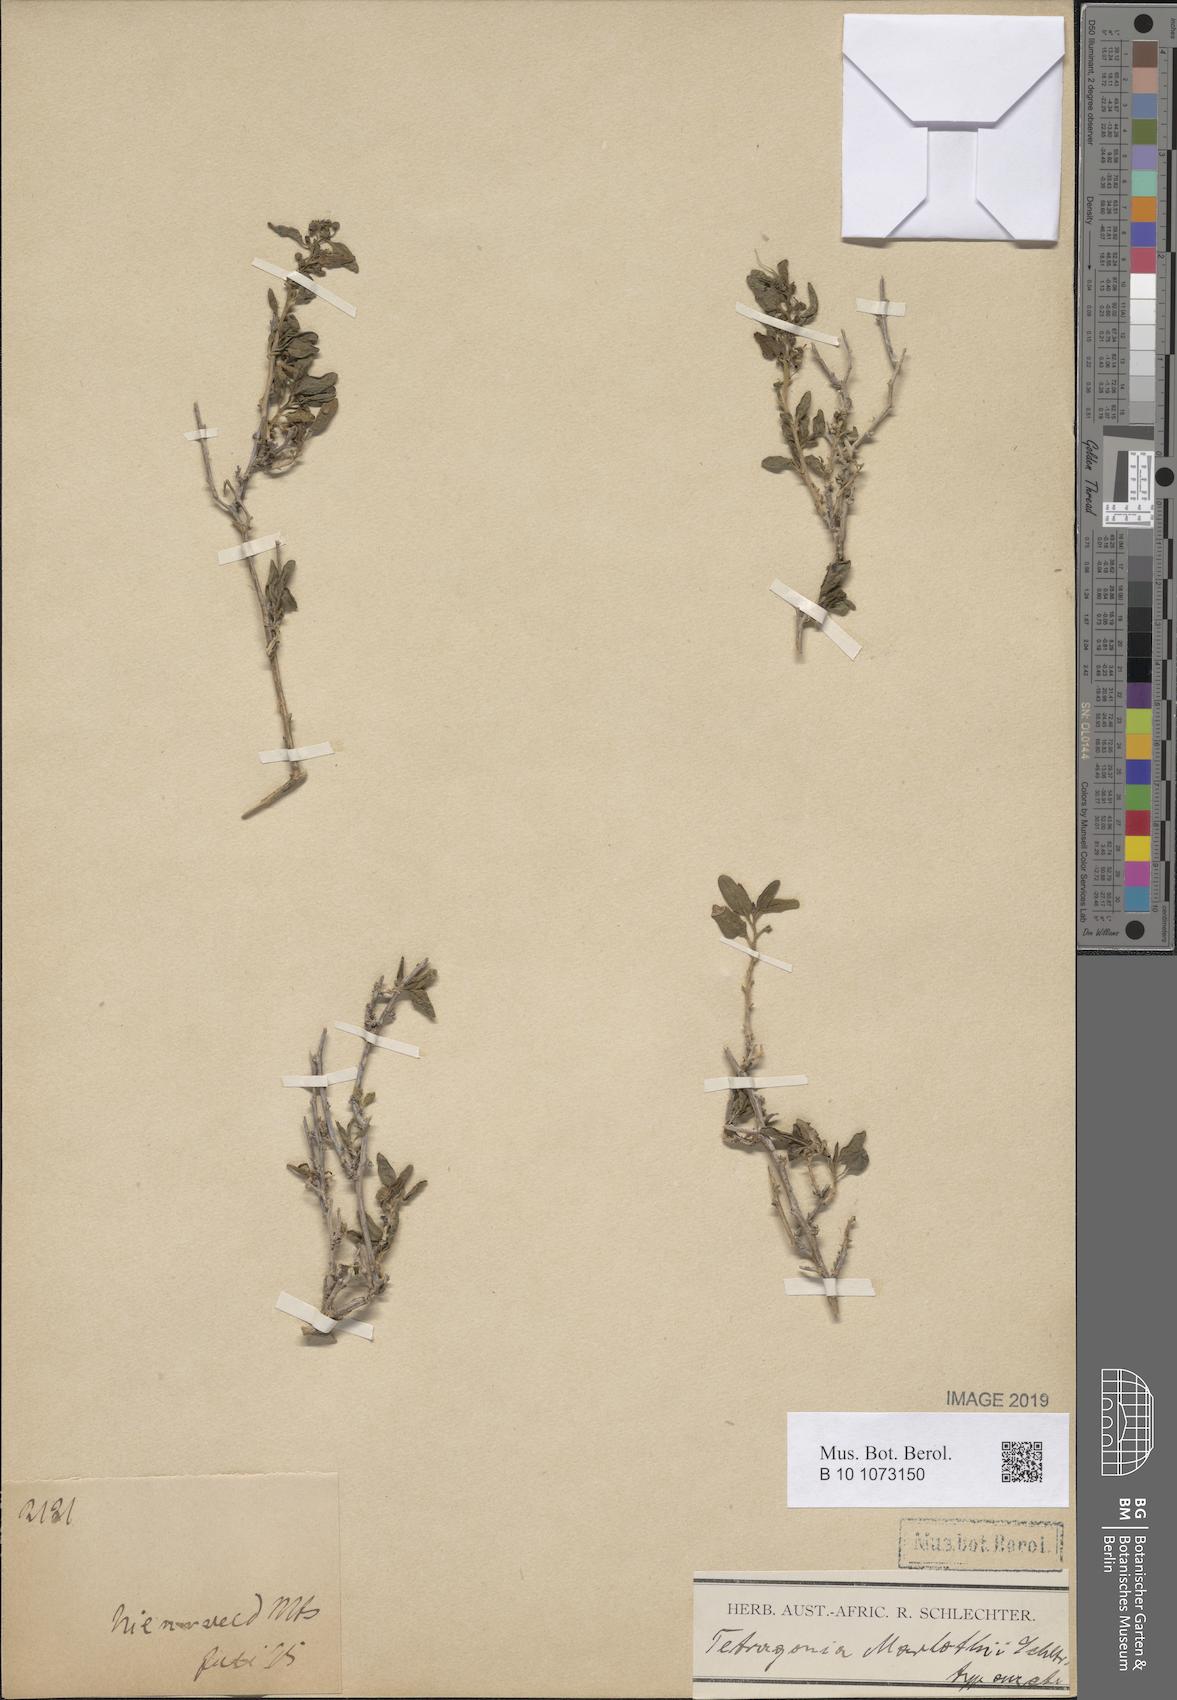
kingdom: Plantae
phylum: Tracheophyta
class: Magnoliopsida
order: Caryophyllales
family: Aizoaceae
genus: Tetragonia
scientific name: Tetragonia
